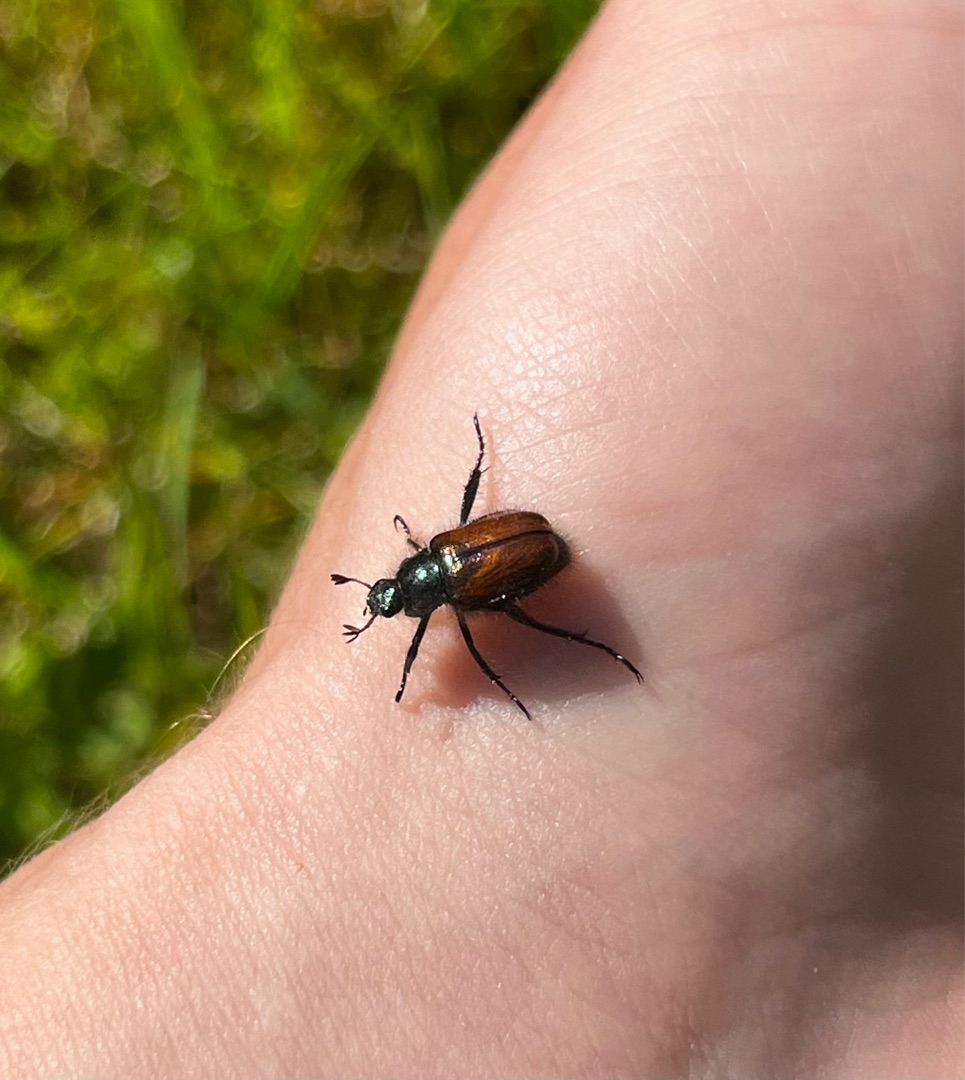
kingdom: Animalia
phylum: Arthropoda
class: Insecta
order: Coleoptera
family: Scarabaeidae
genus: Phyllopertha
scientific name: Phyllopertha horticola
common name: Gåsebille
